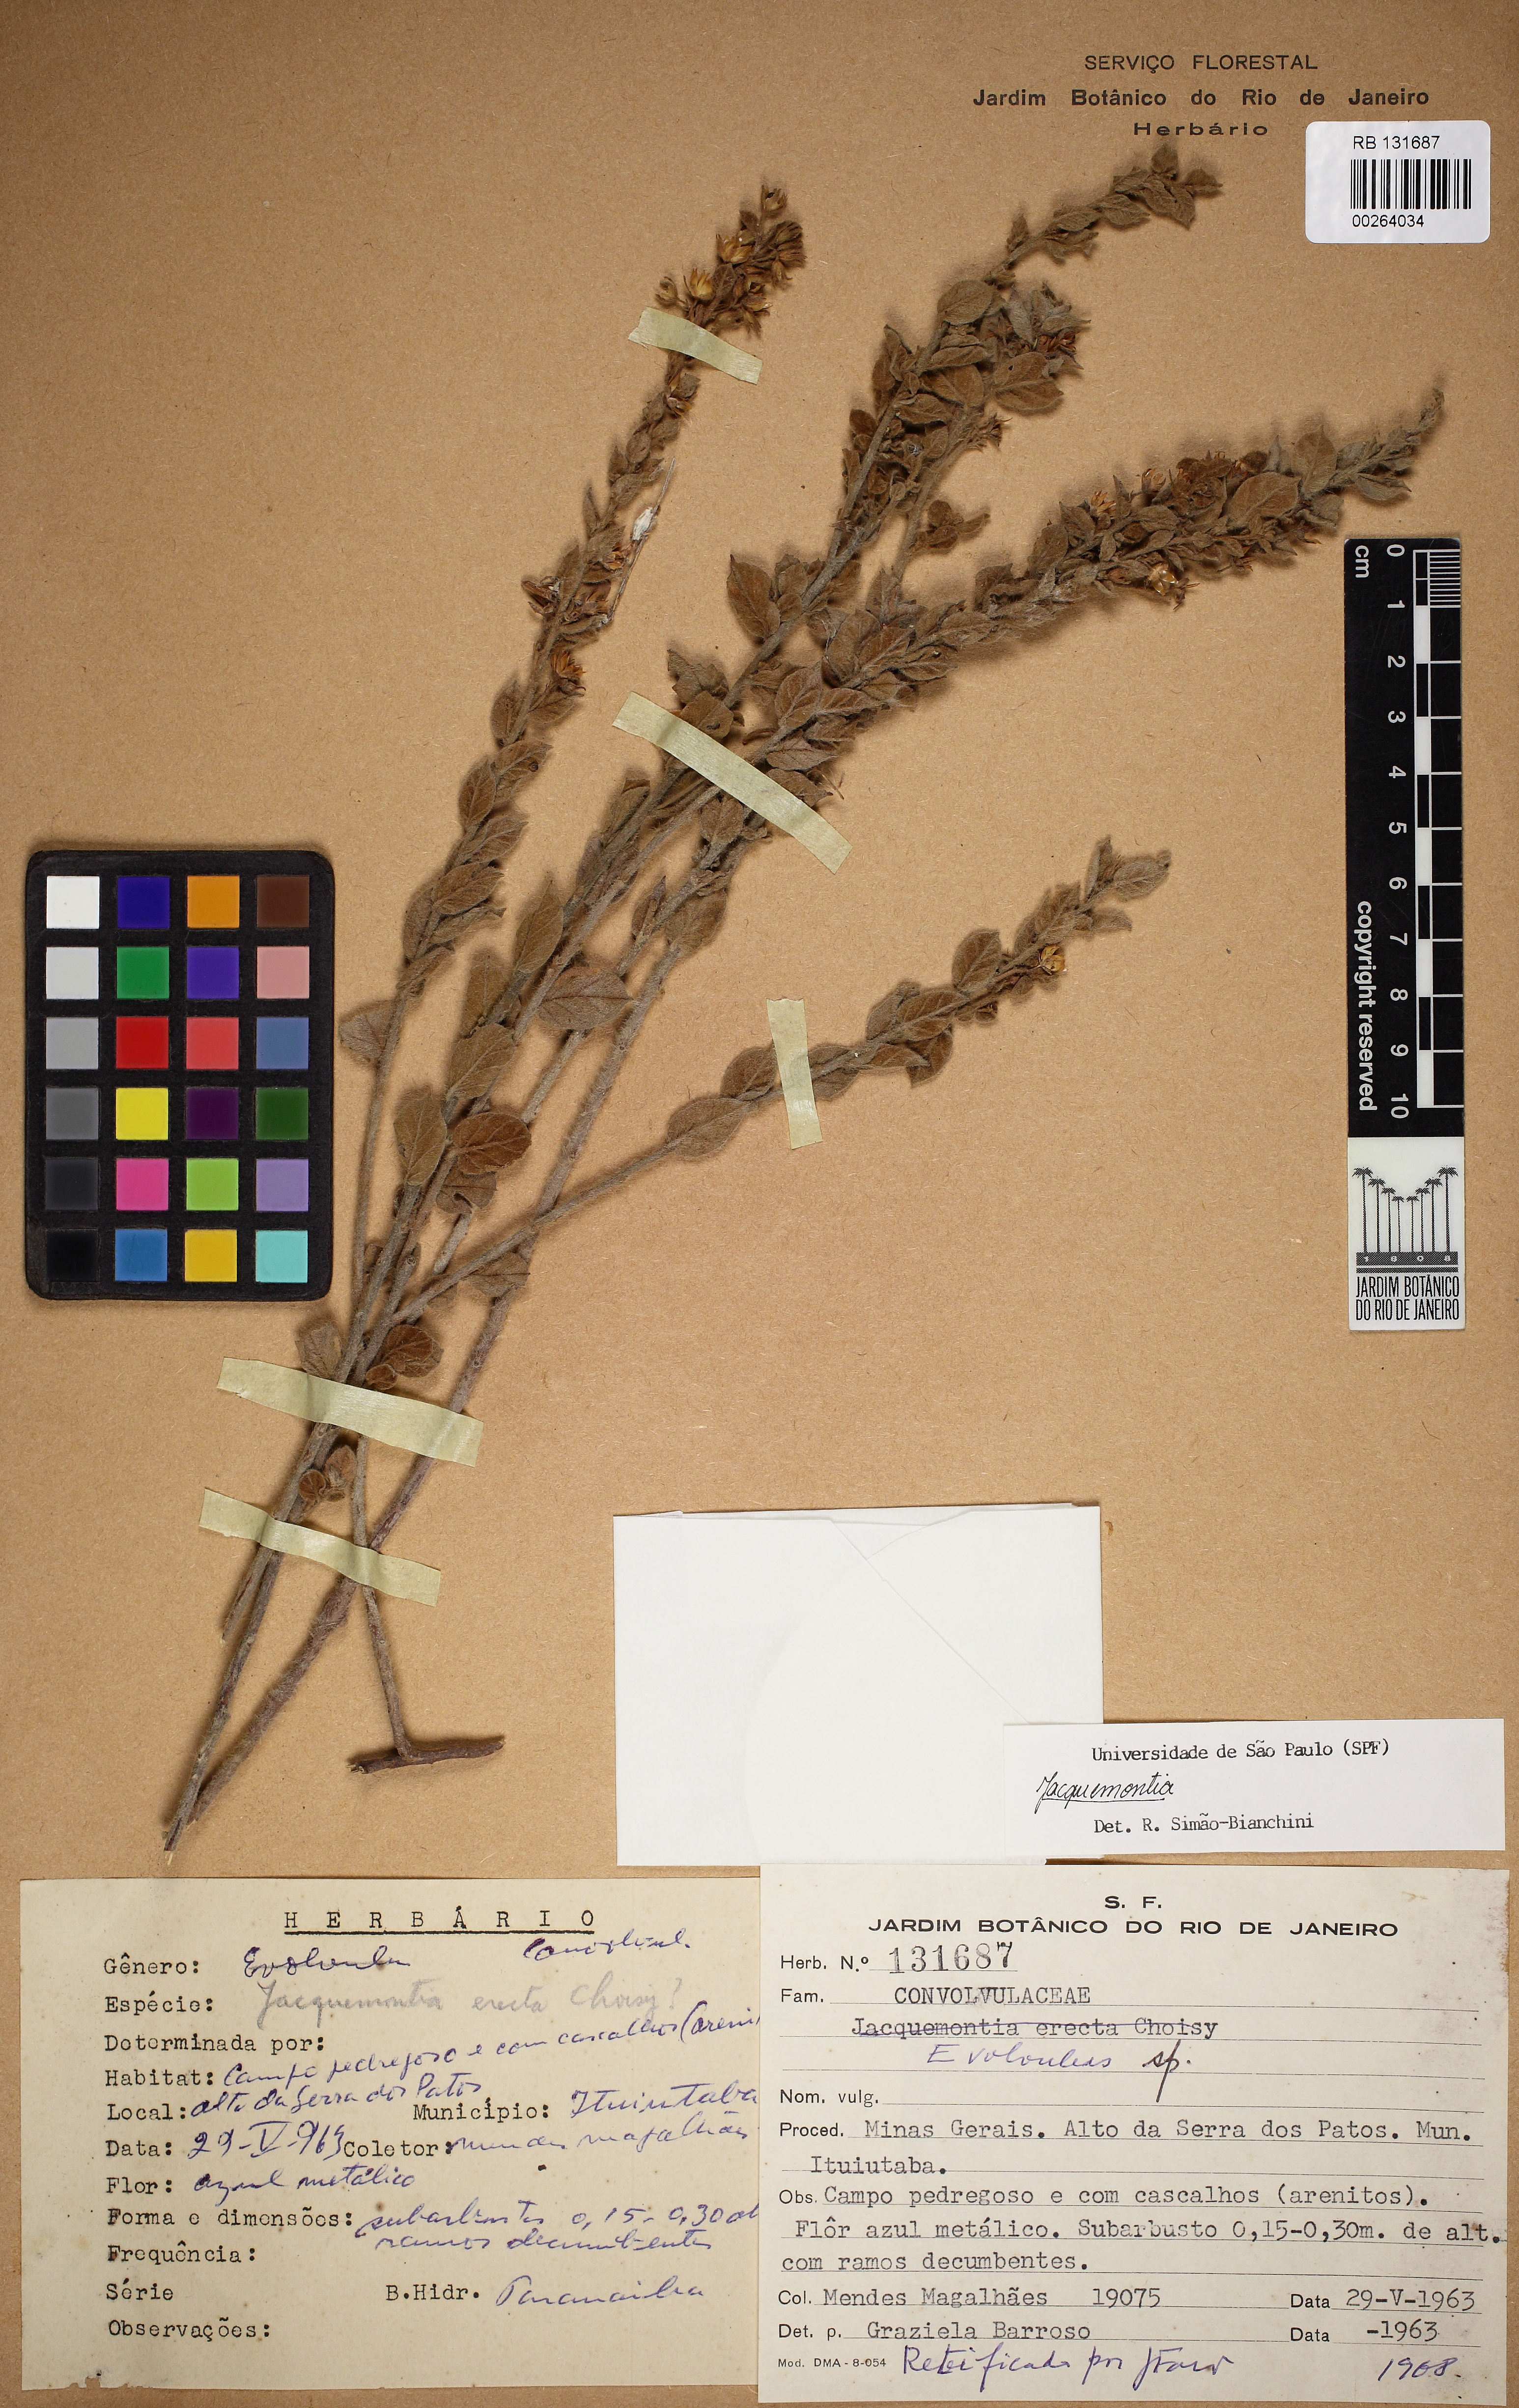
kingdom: Plantae
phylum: Tracheophyta
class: Magnoliopsida
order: Solanales
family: Convolvulaceae
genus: Jacquemontia
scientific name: Jacquemontia
